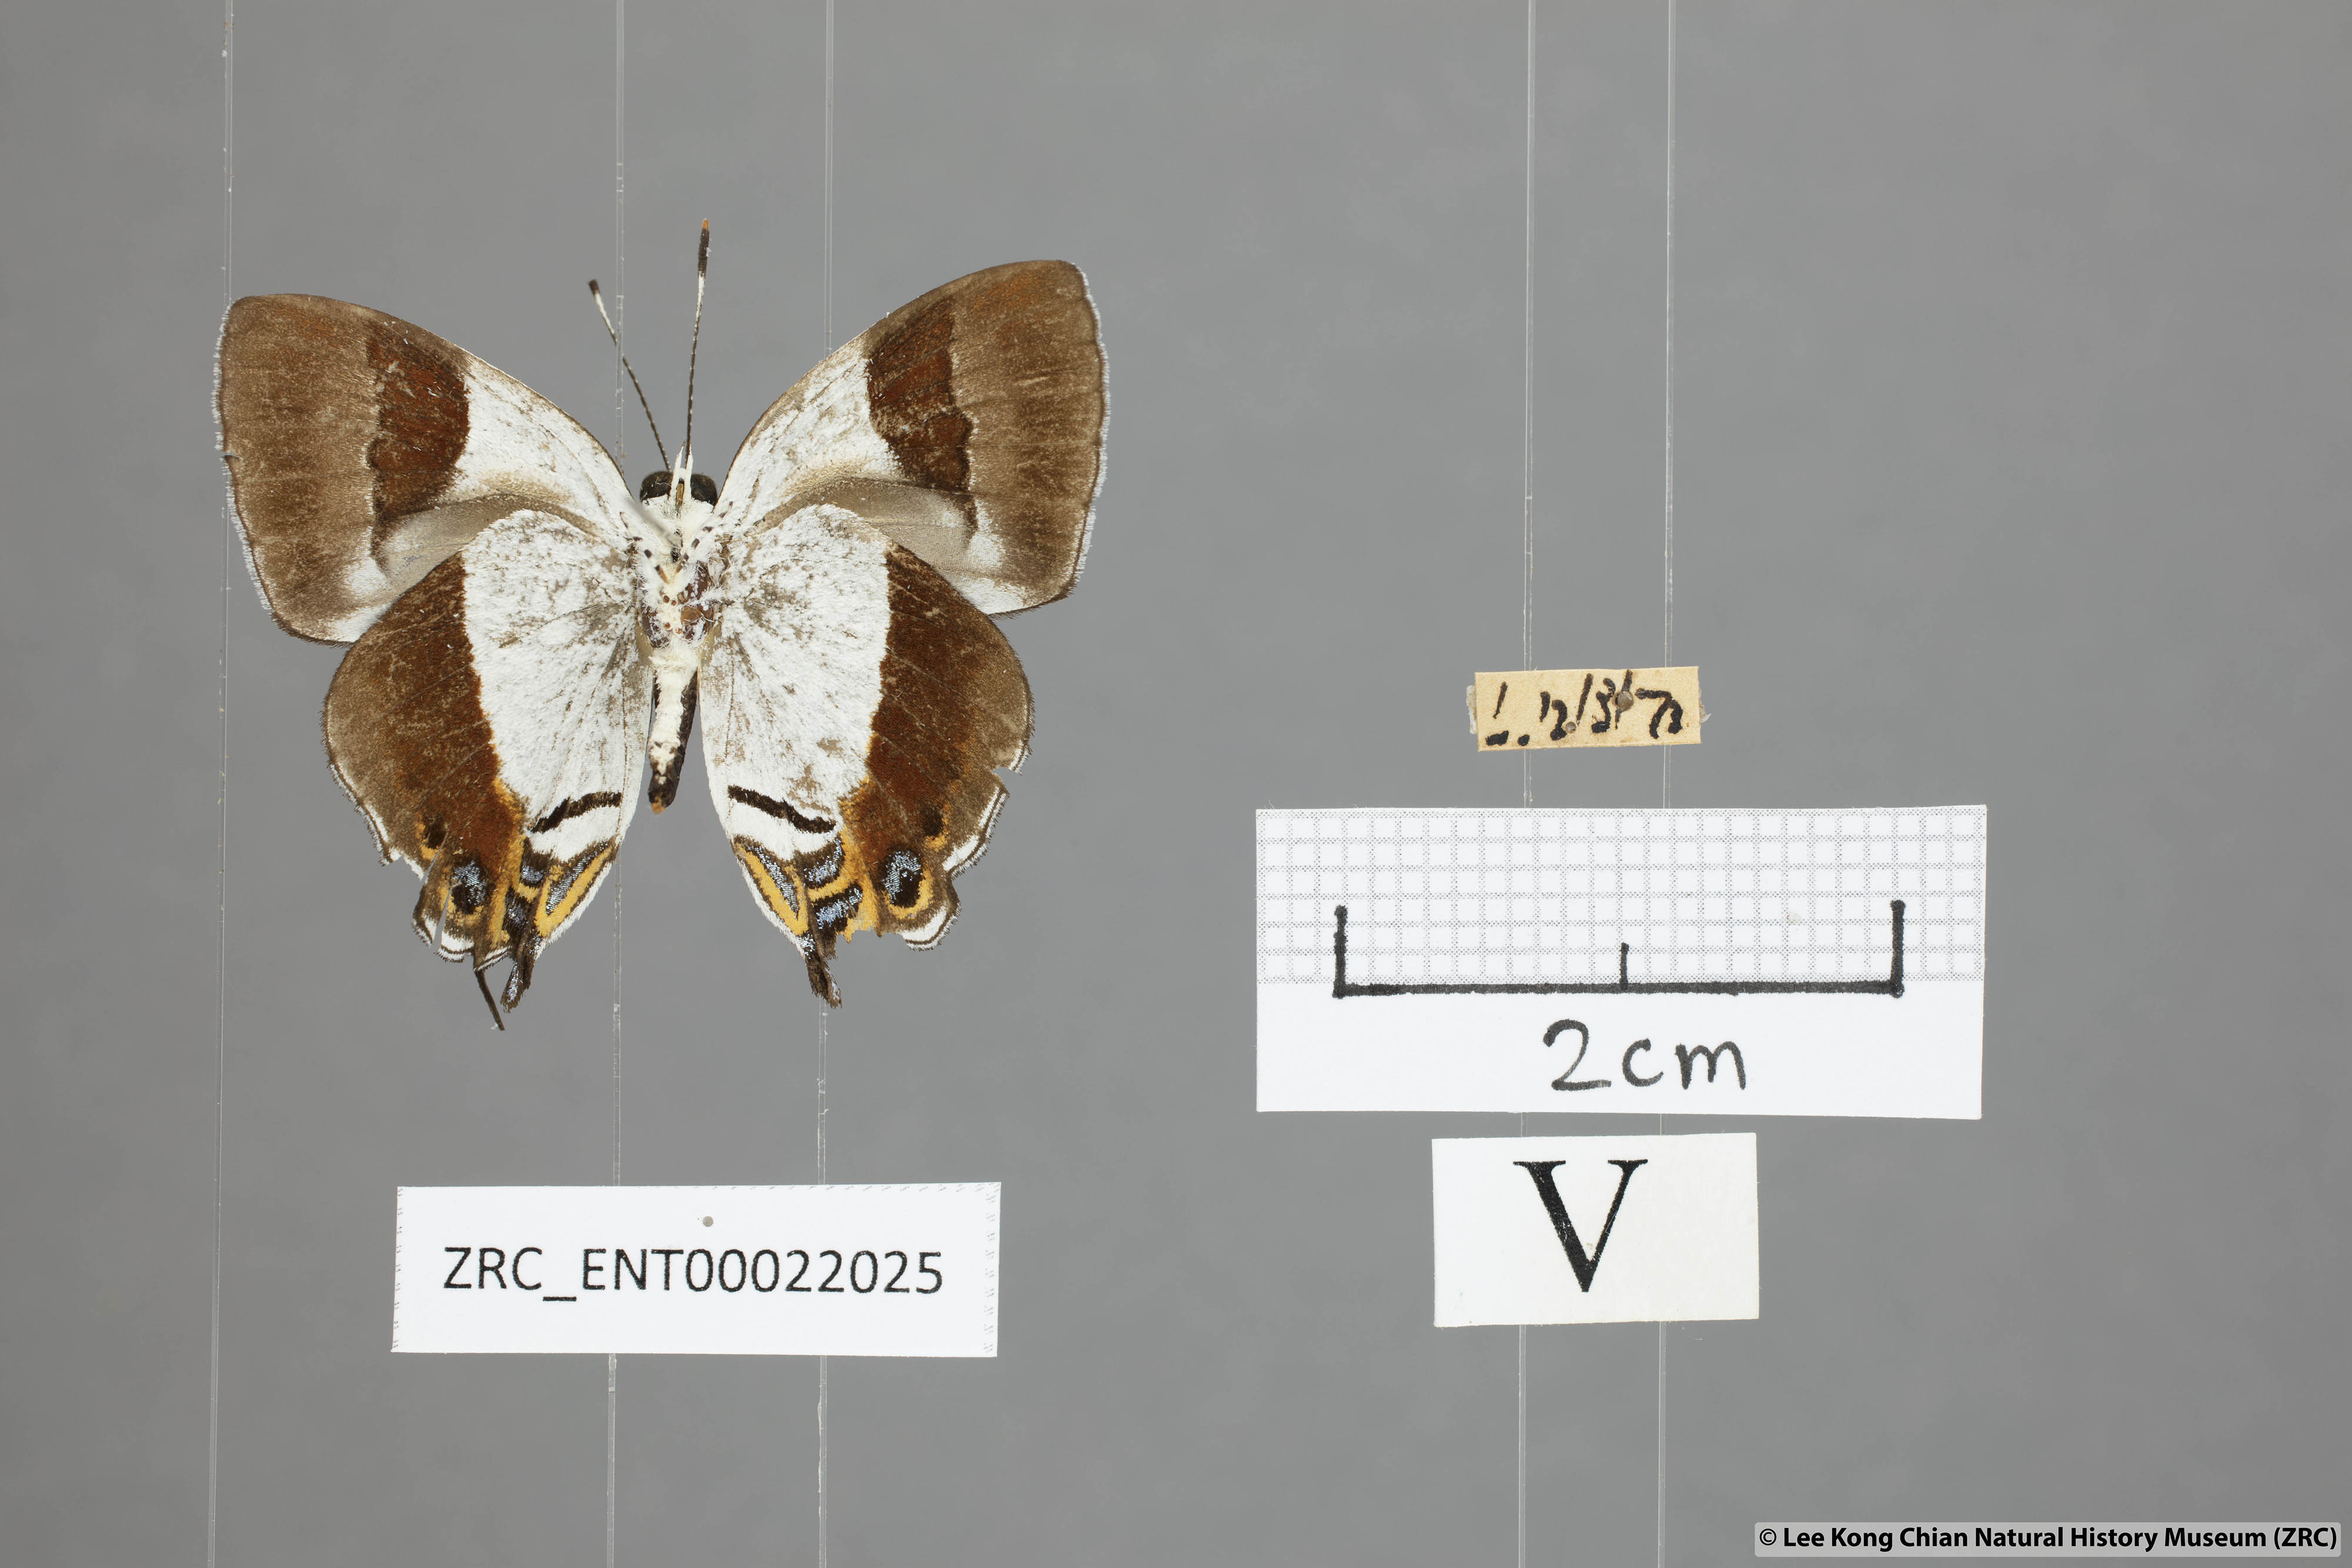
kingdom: Animalia
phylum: Arthropoda
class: Insecta
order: Lepidoptera
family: Lycaenidae
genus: Sithon
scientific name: Sithon nedymond
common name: Plush
